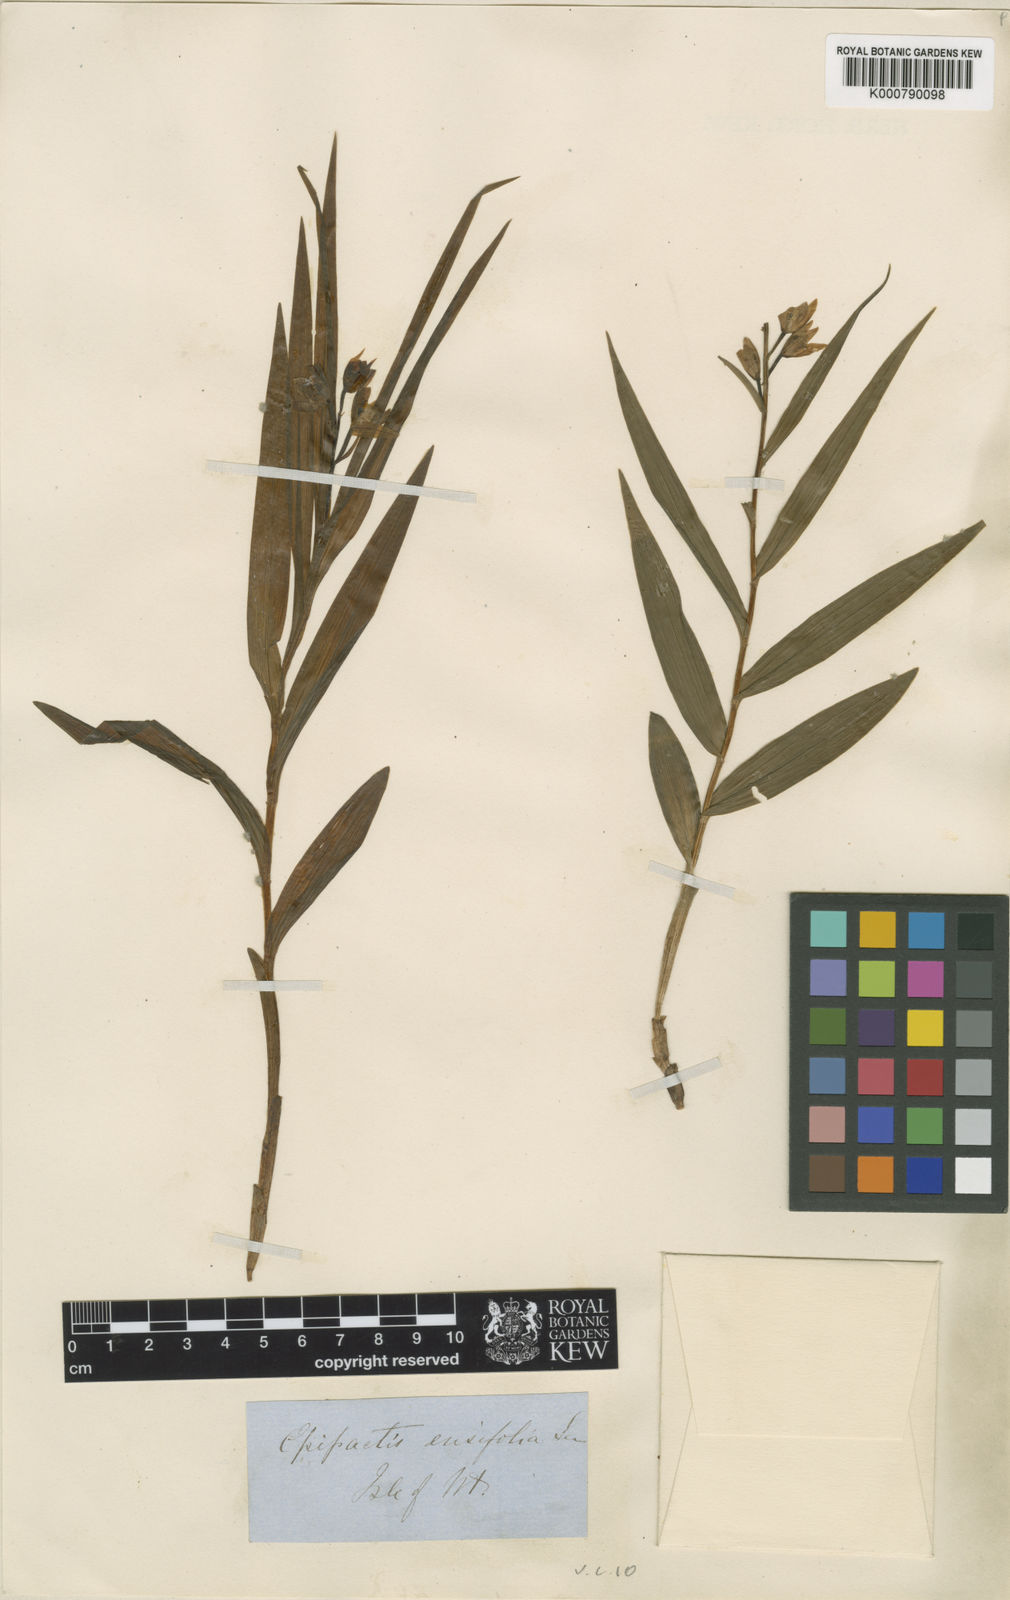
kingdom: Plantae
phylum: Tracheophyta
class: Liliopsida
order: Asparagales
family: Orchidaceae
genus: Cephalanthera
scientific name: Cephalanthera longifolia
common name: Narrow-leaved helleborine
